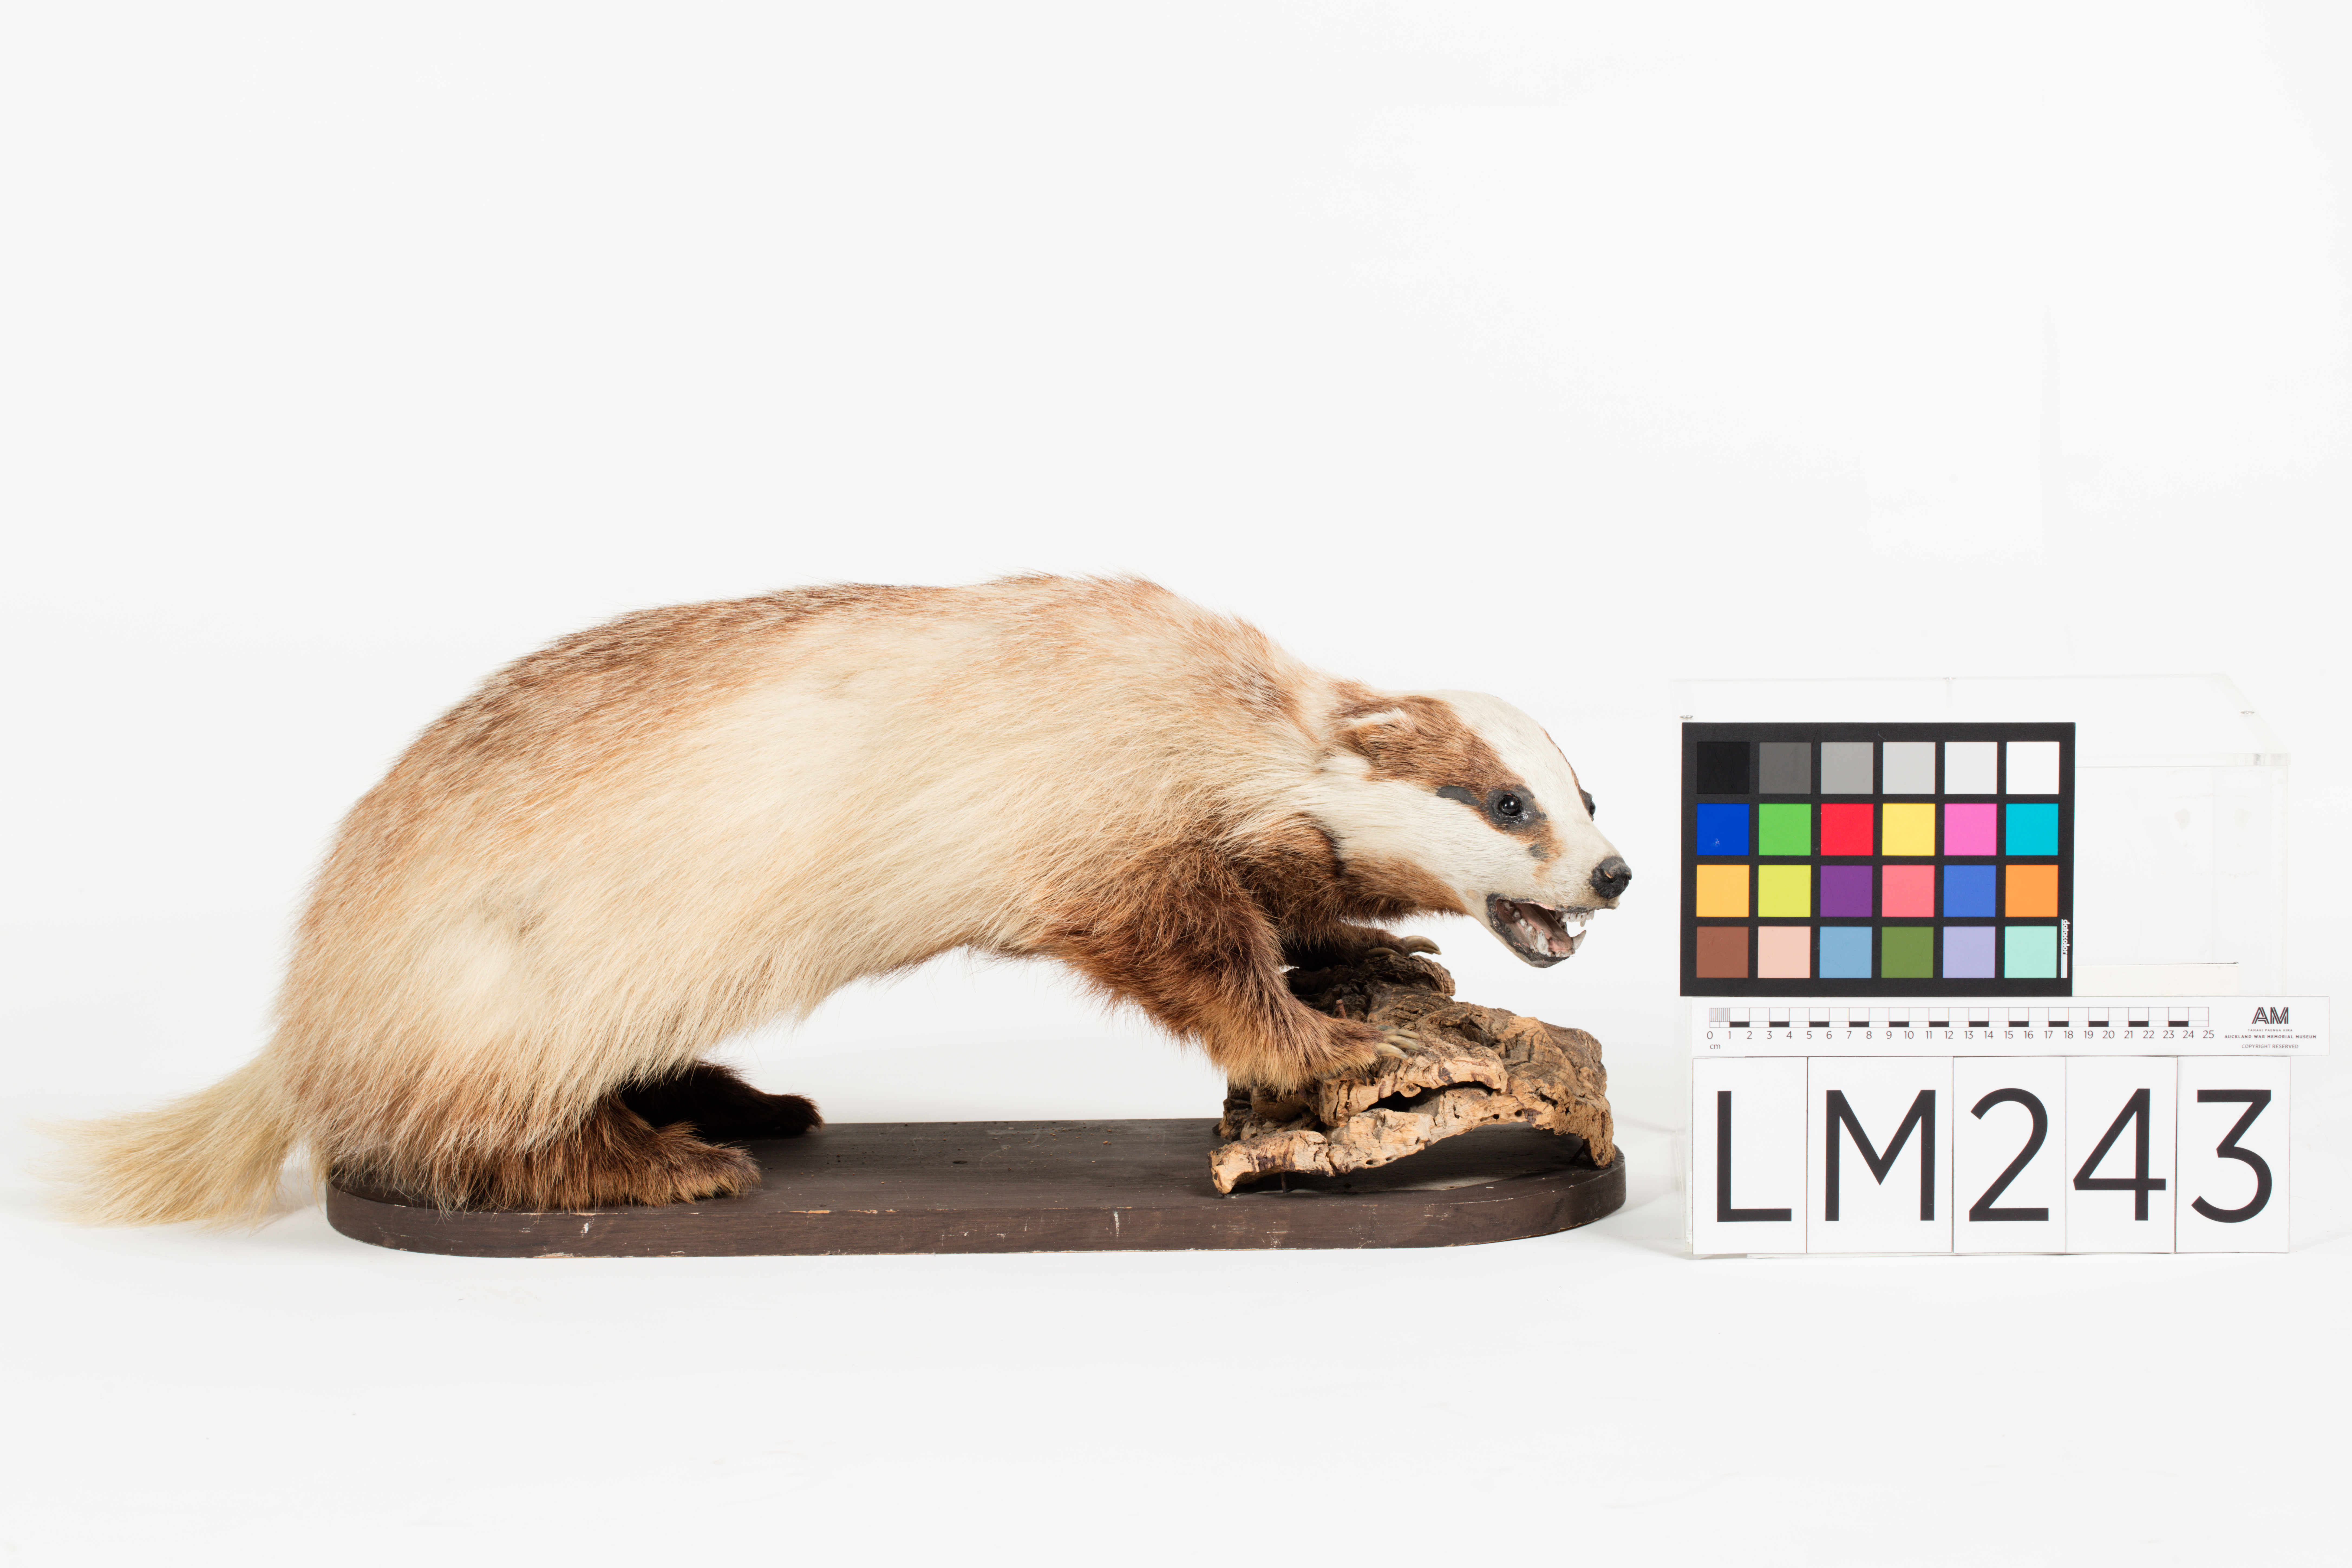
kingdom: Animalia
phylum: Chordata
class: Mammalia
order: Carnivora
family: Mustelidae
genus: Meles
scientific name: Meles meles
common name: Eurasian badger
